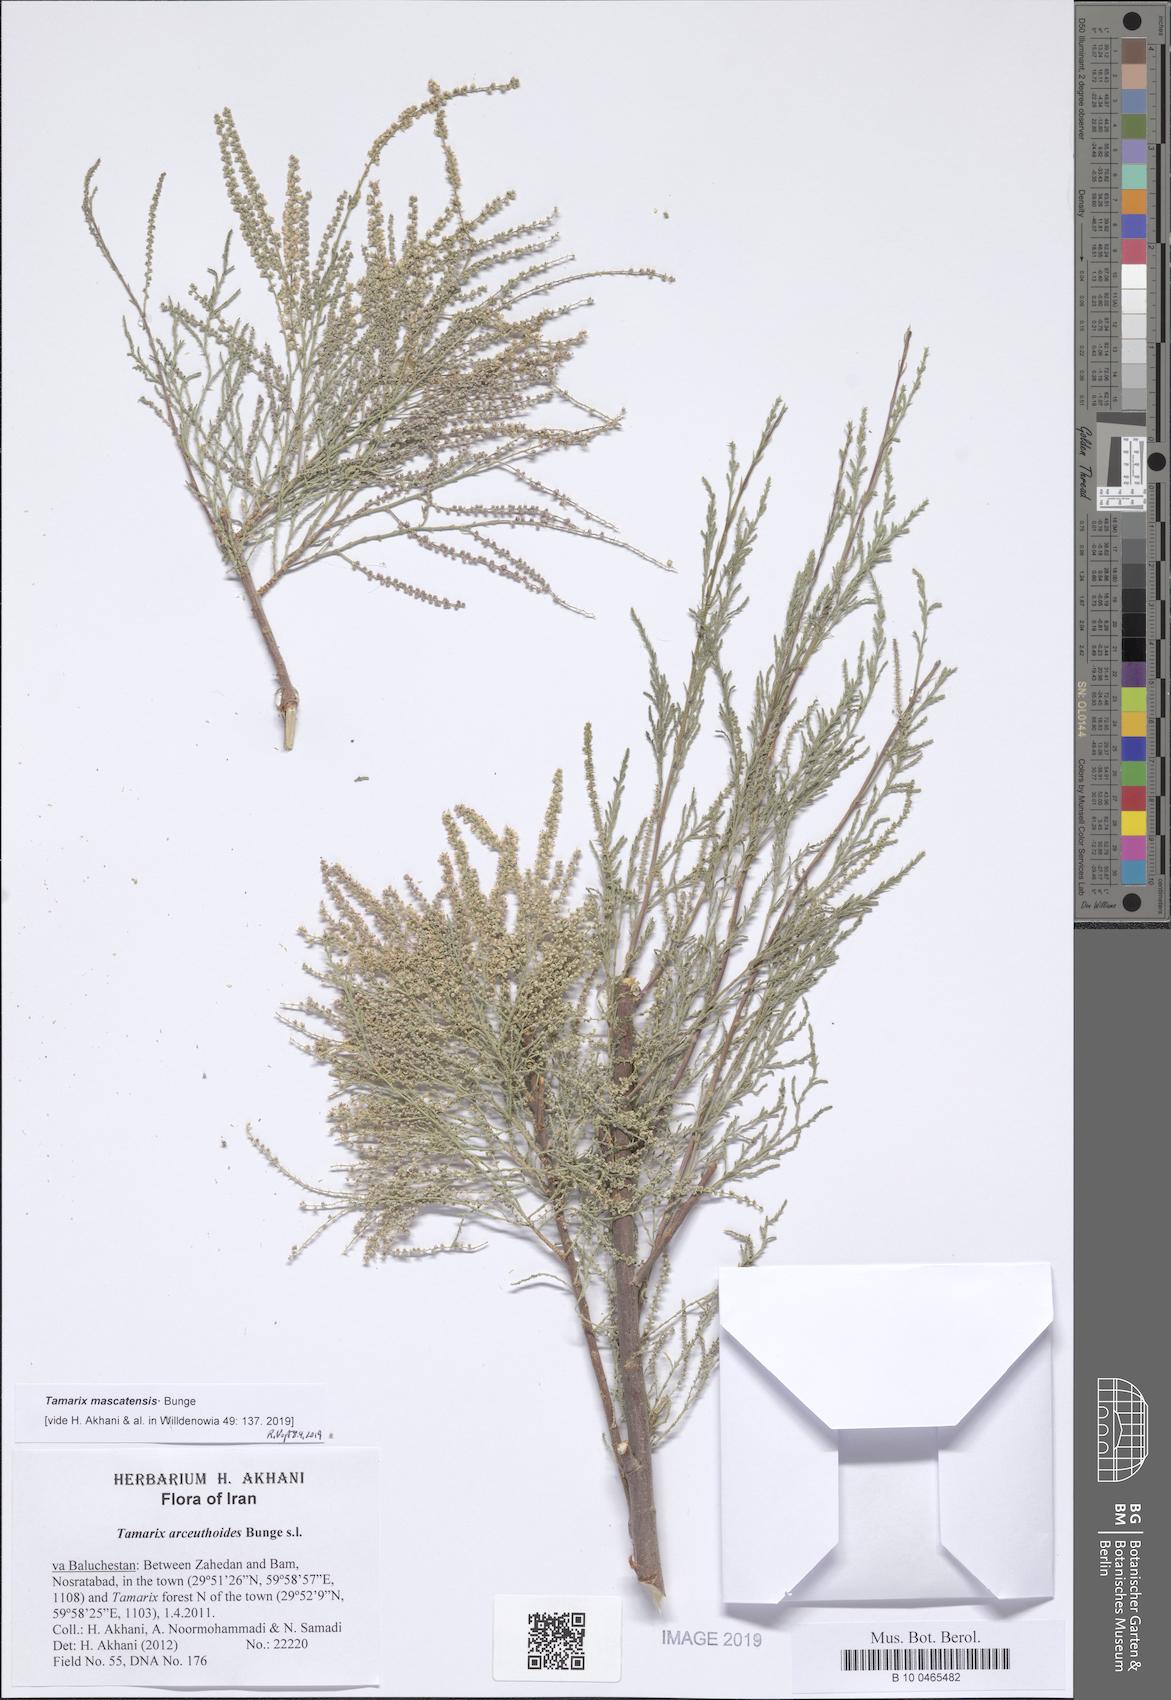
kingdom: Plantae
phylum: Tracheophyta
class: Magnoliopsida
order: Caryophyllales
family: Tamaricaceae
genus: Tamarix
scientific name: Tamarix mascatensis
